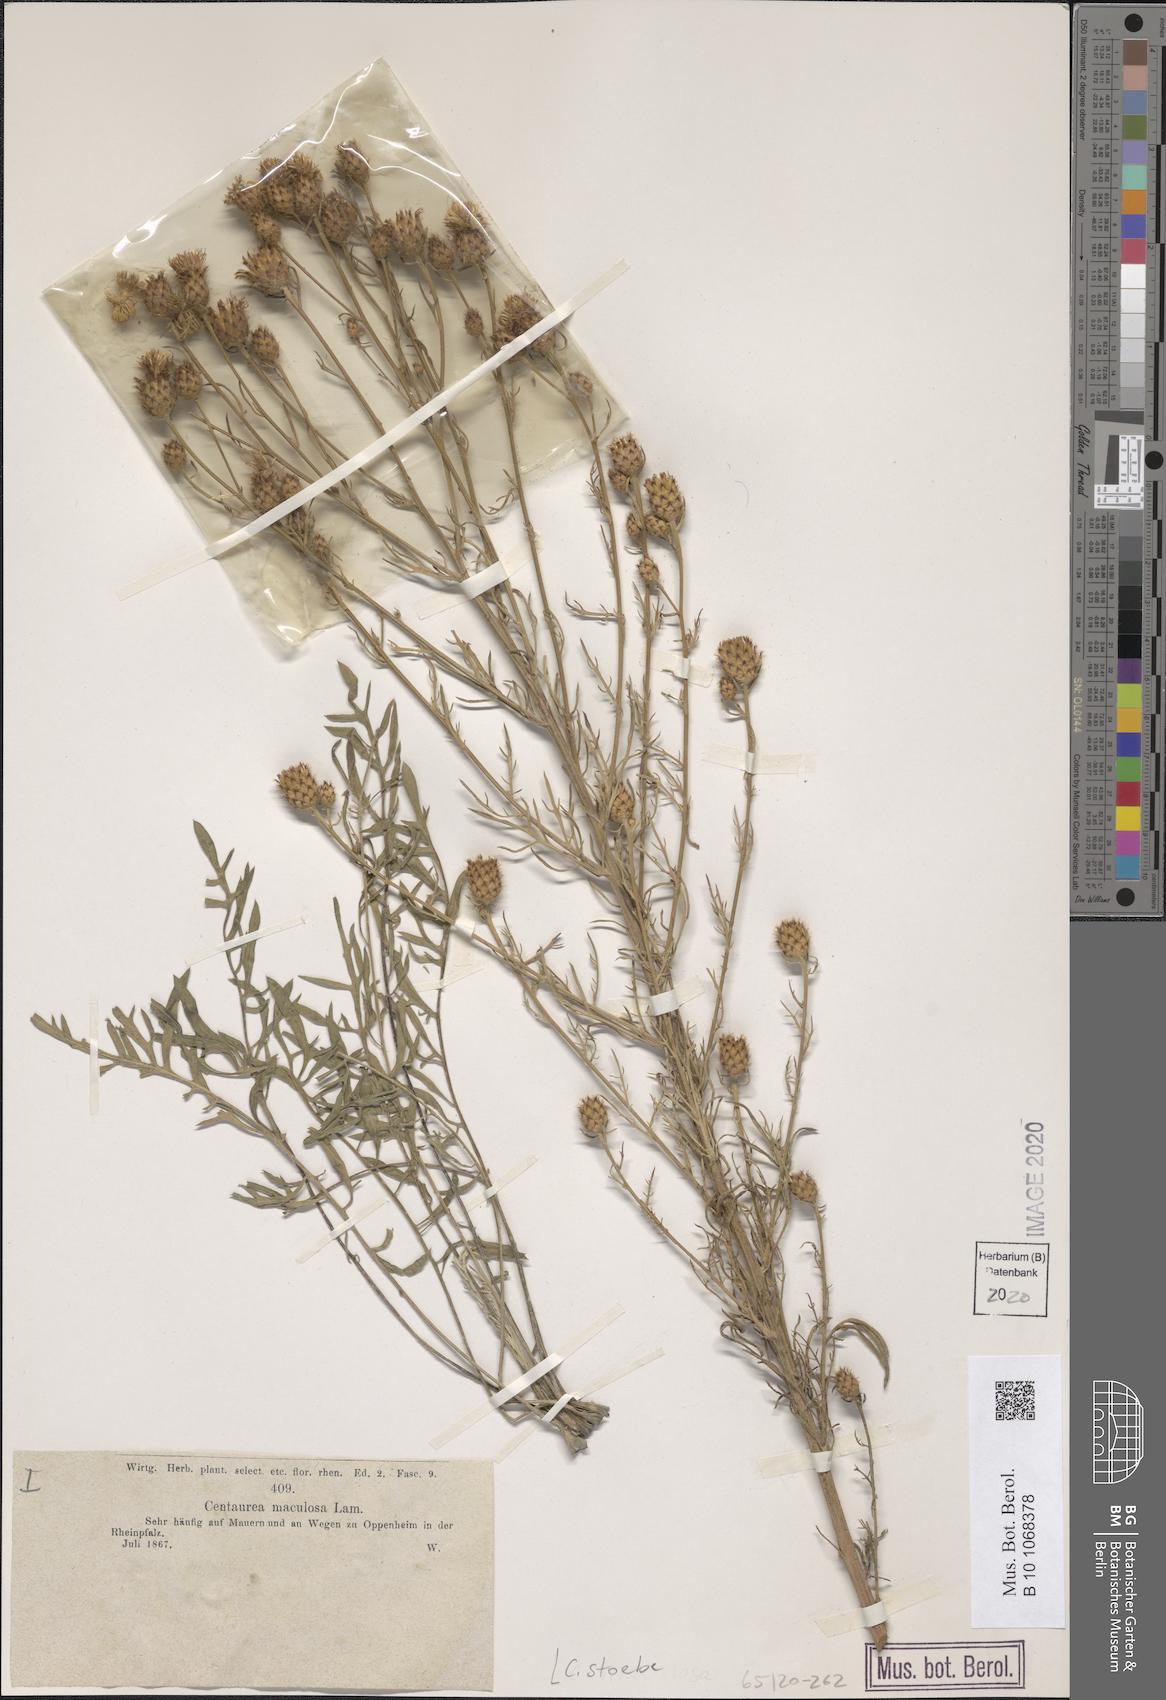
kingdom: Plantae
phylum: Tracheophyta
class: Magnoliopsida
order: Asterales
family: Asteraceae
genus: Centaurea
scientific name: Centaurea stoebe
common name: Spotted knapweed
